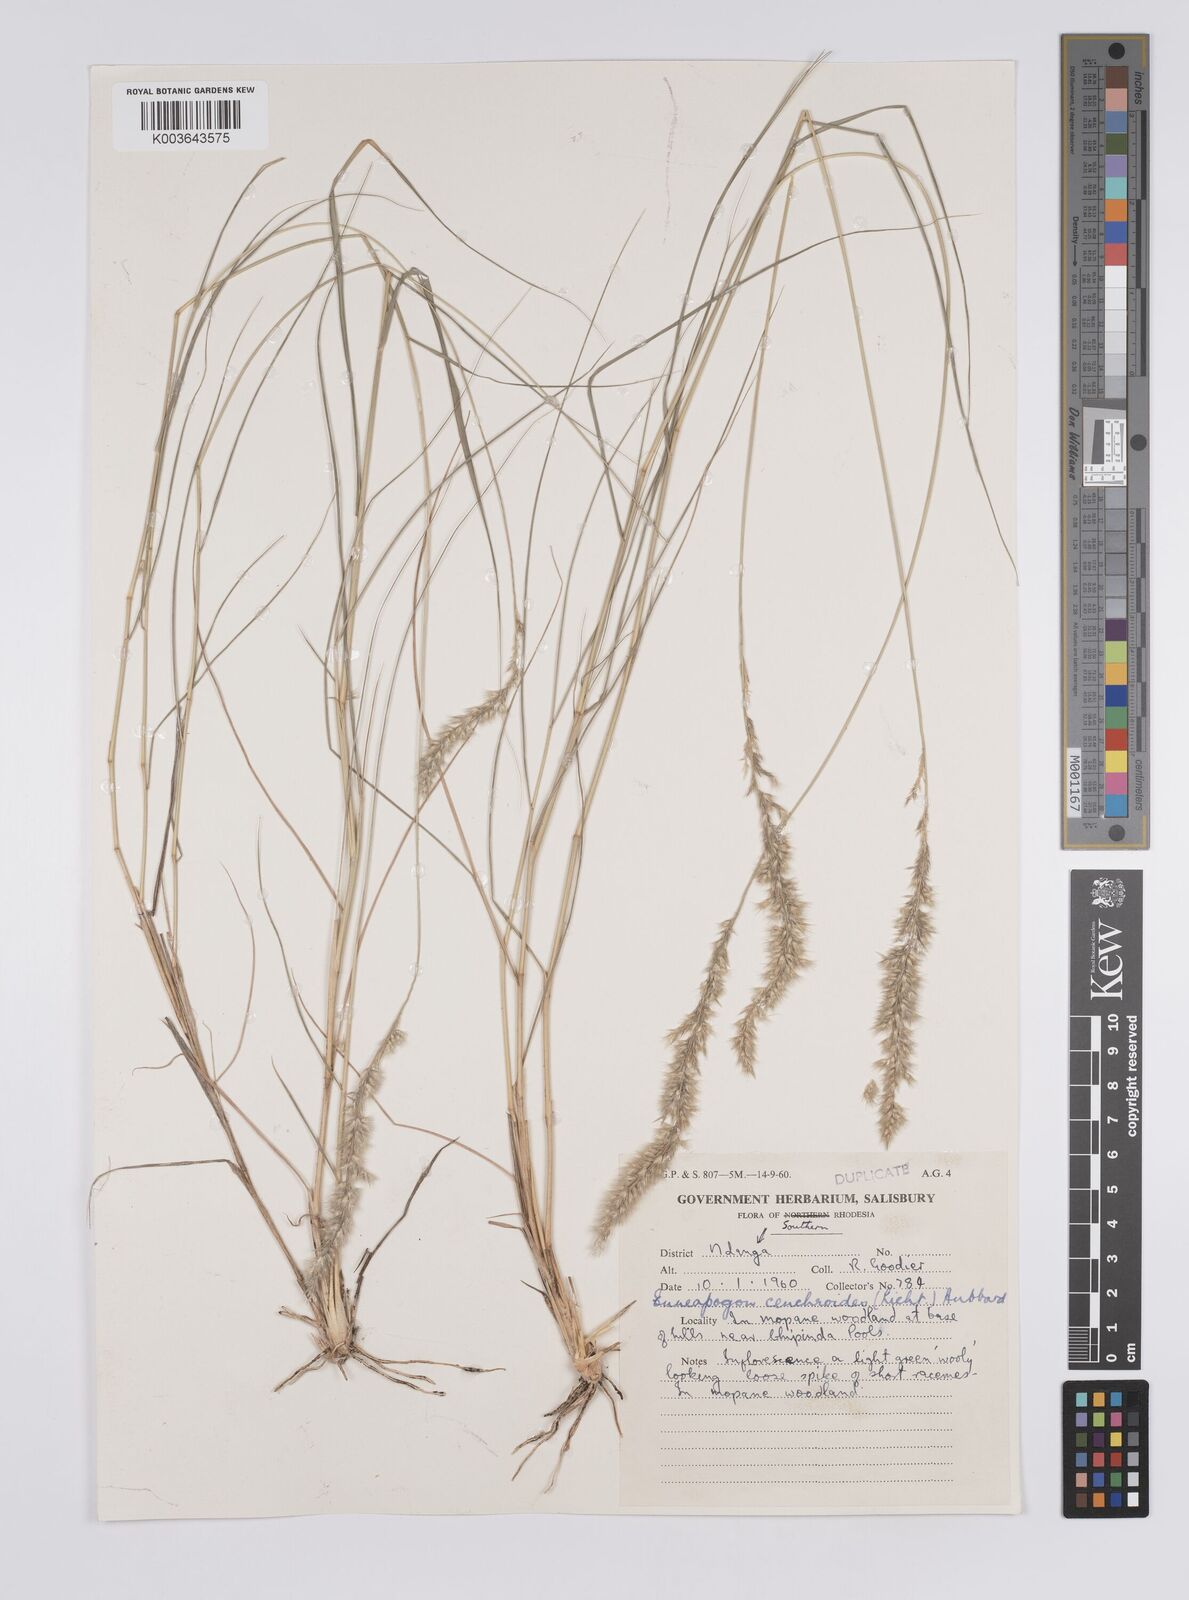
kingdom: Plantae
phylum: Tracheophyta
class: Liliopsida
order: Poales
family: Poaceae
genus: Enneapogon
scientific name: Enneapogon scoparius
